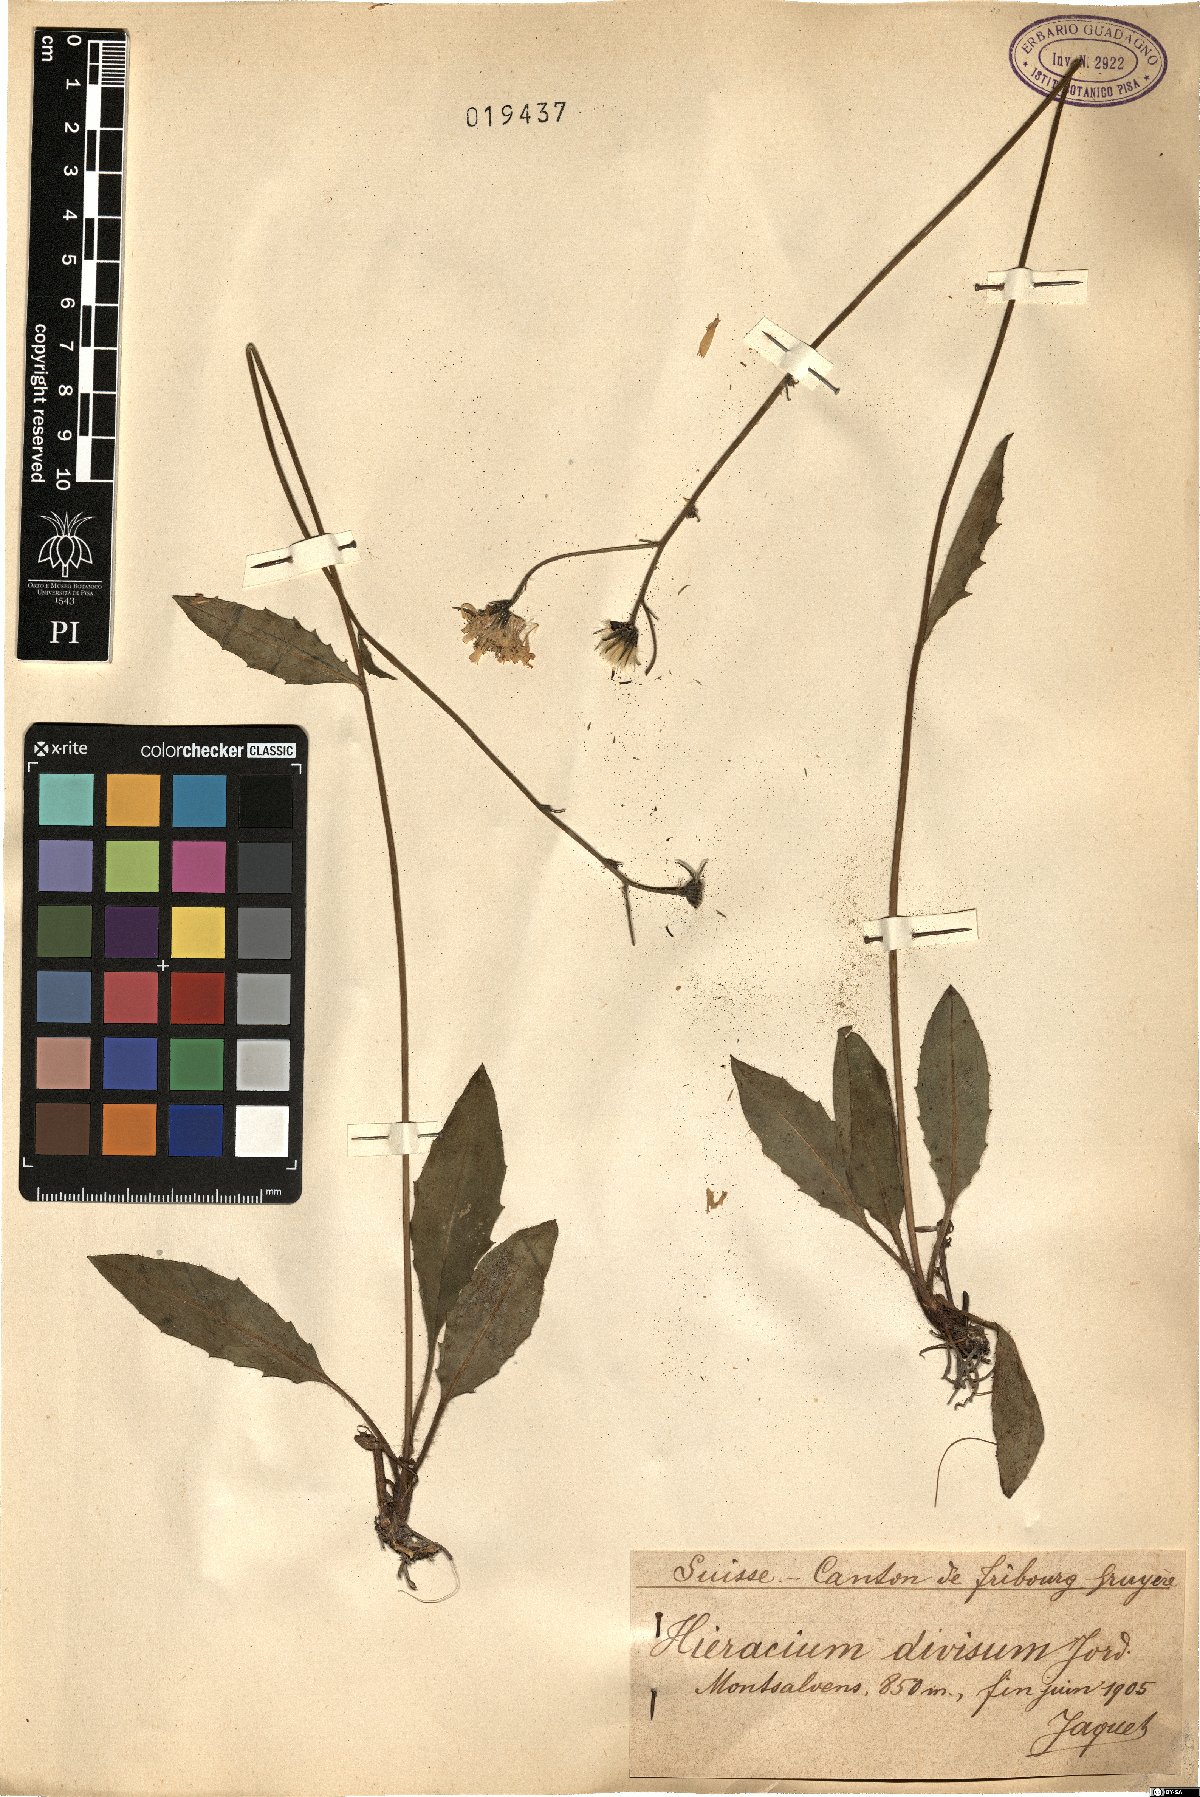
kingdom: Plantae
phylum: Tracheophyta
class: Magnoliopsida
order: Asterales
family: Asteraceae
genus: Hieracium
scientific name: Hieracium maculatum
